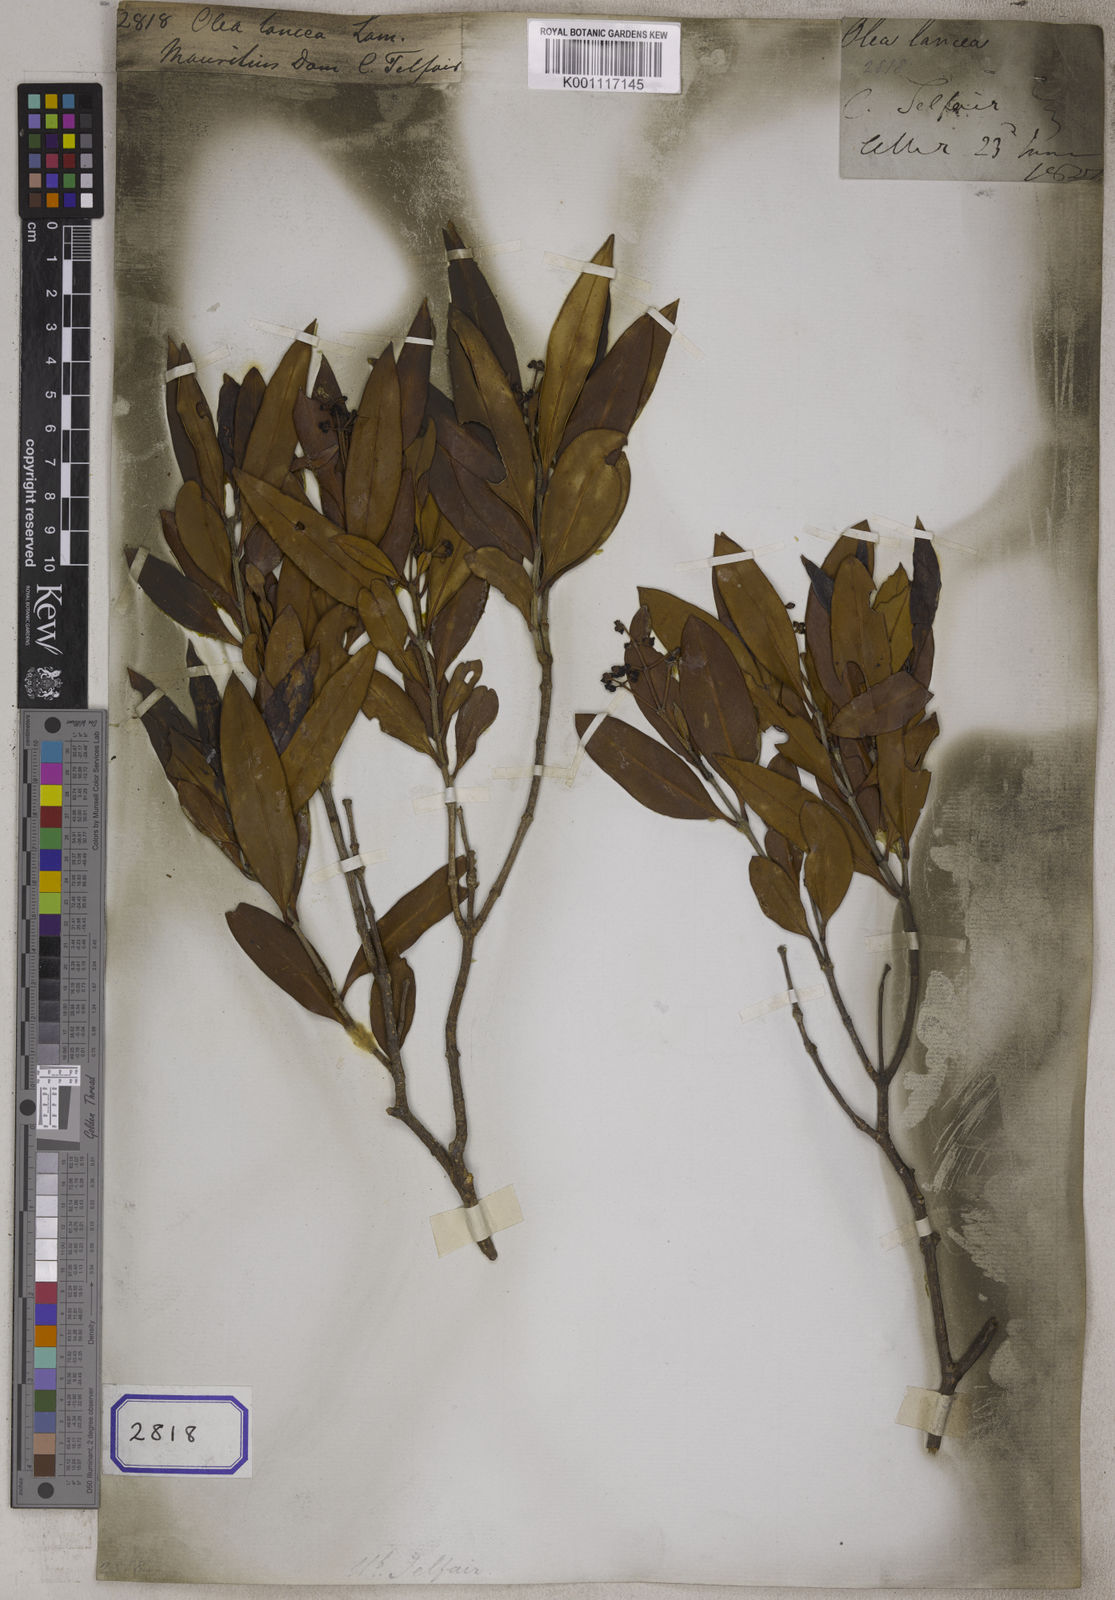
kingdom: Plantae
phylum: Tracheophyta
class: Magnoliopsida
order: Lamiales
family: Oleaceae
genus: Olea
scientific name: Olea lancea
